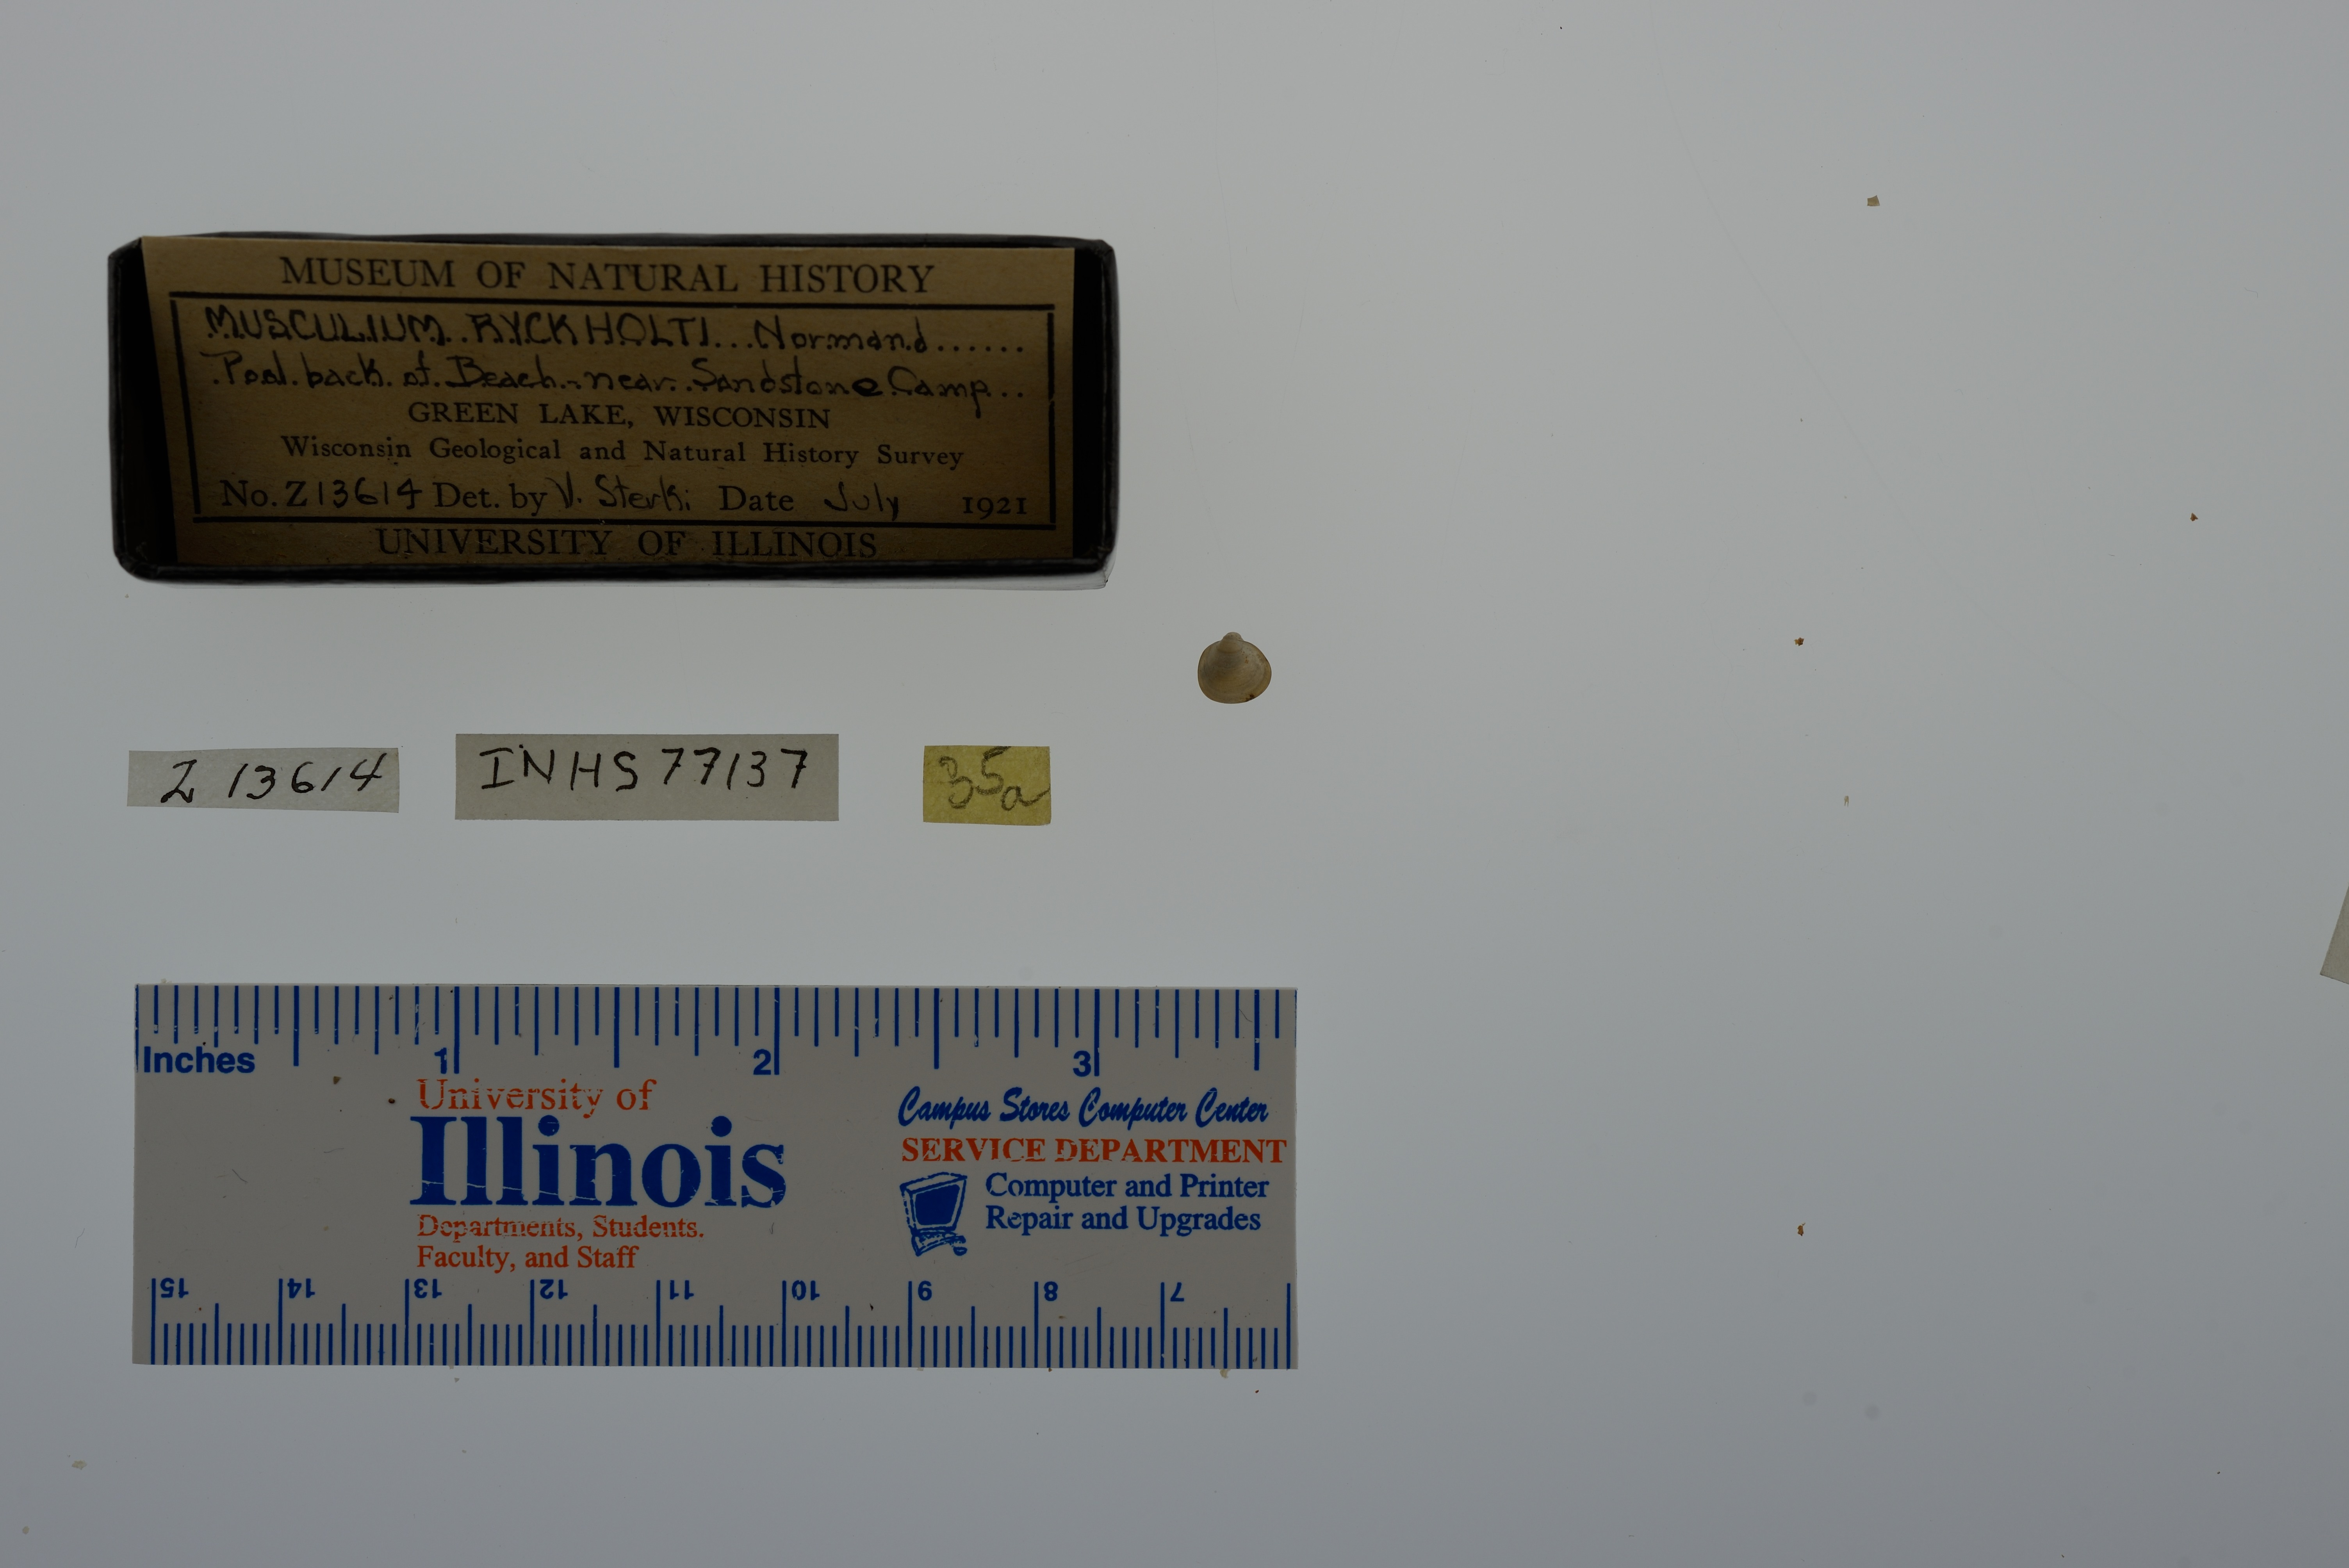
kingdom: Animalia
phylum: Mollusca
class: Bivalvia
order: Sphaeriida
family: Sphaeriidae
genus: Musculium
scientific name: Musculium lacustre
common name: Lake fingernailclam
